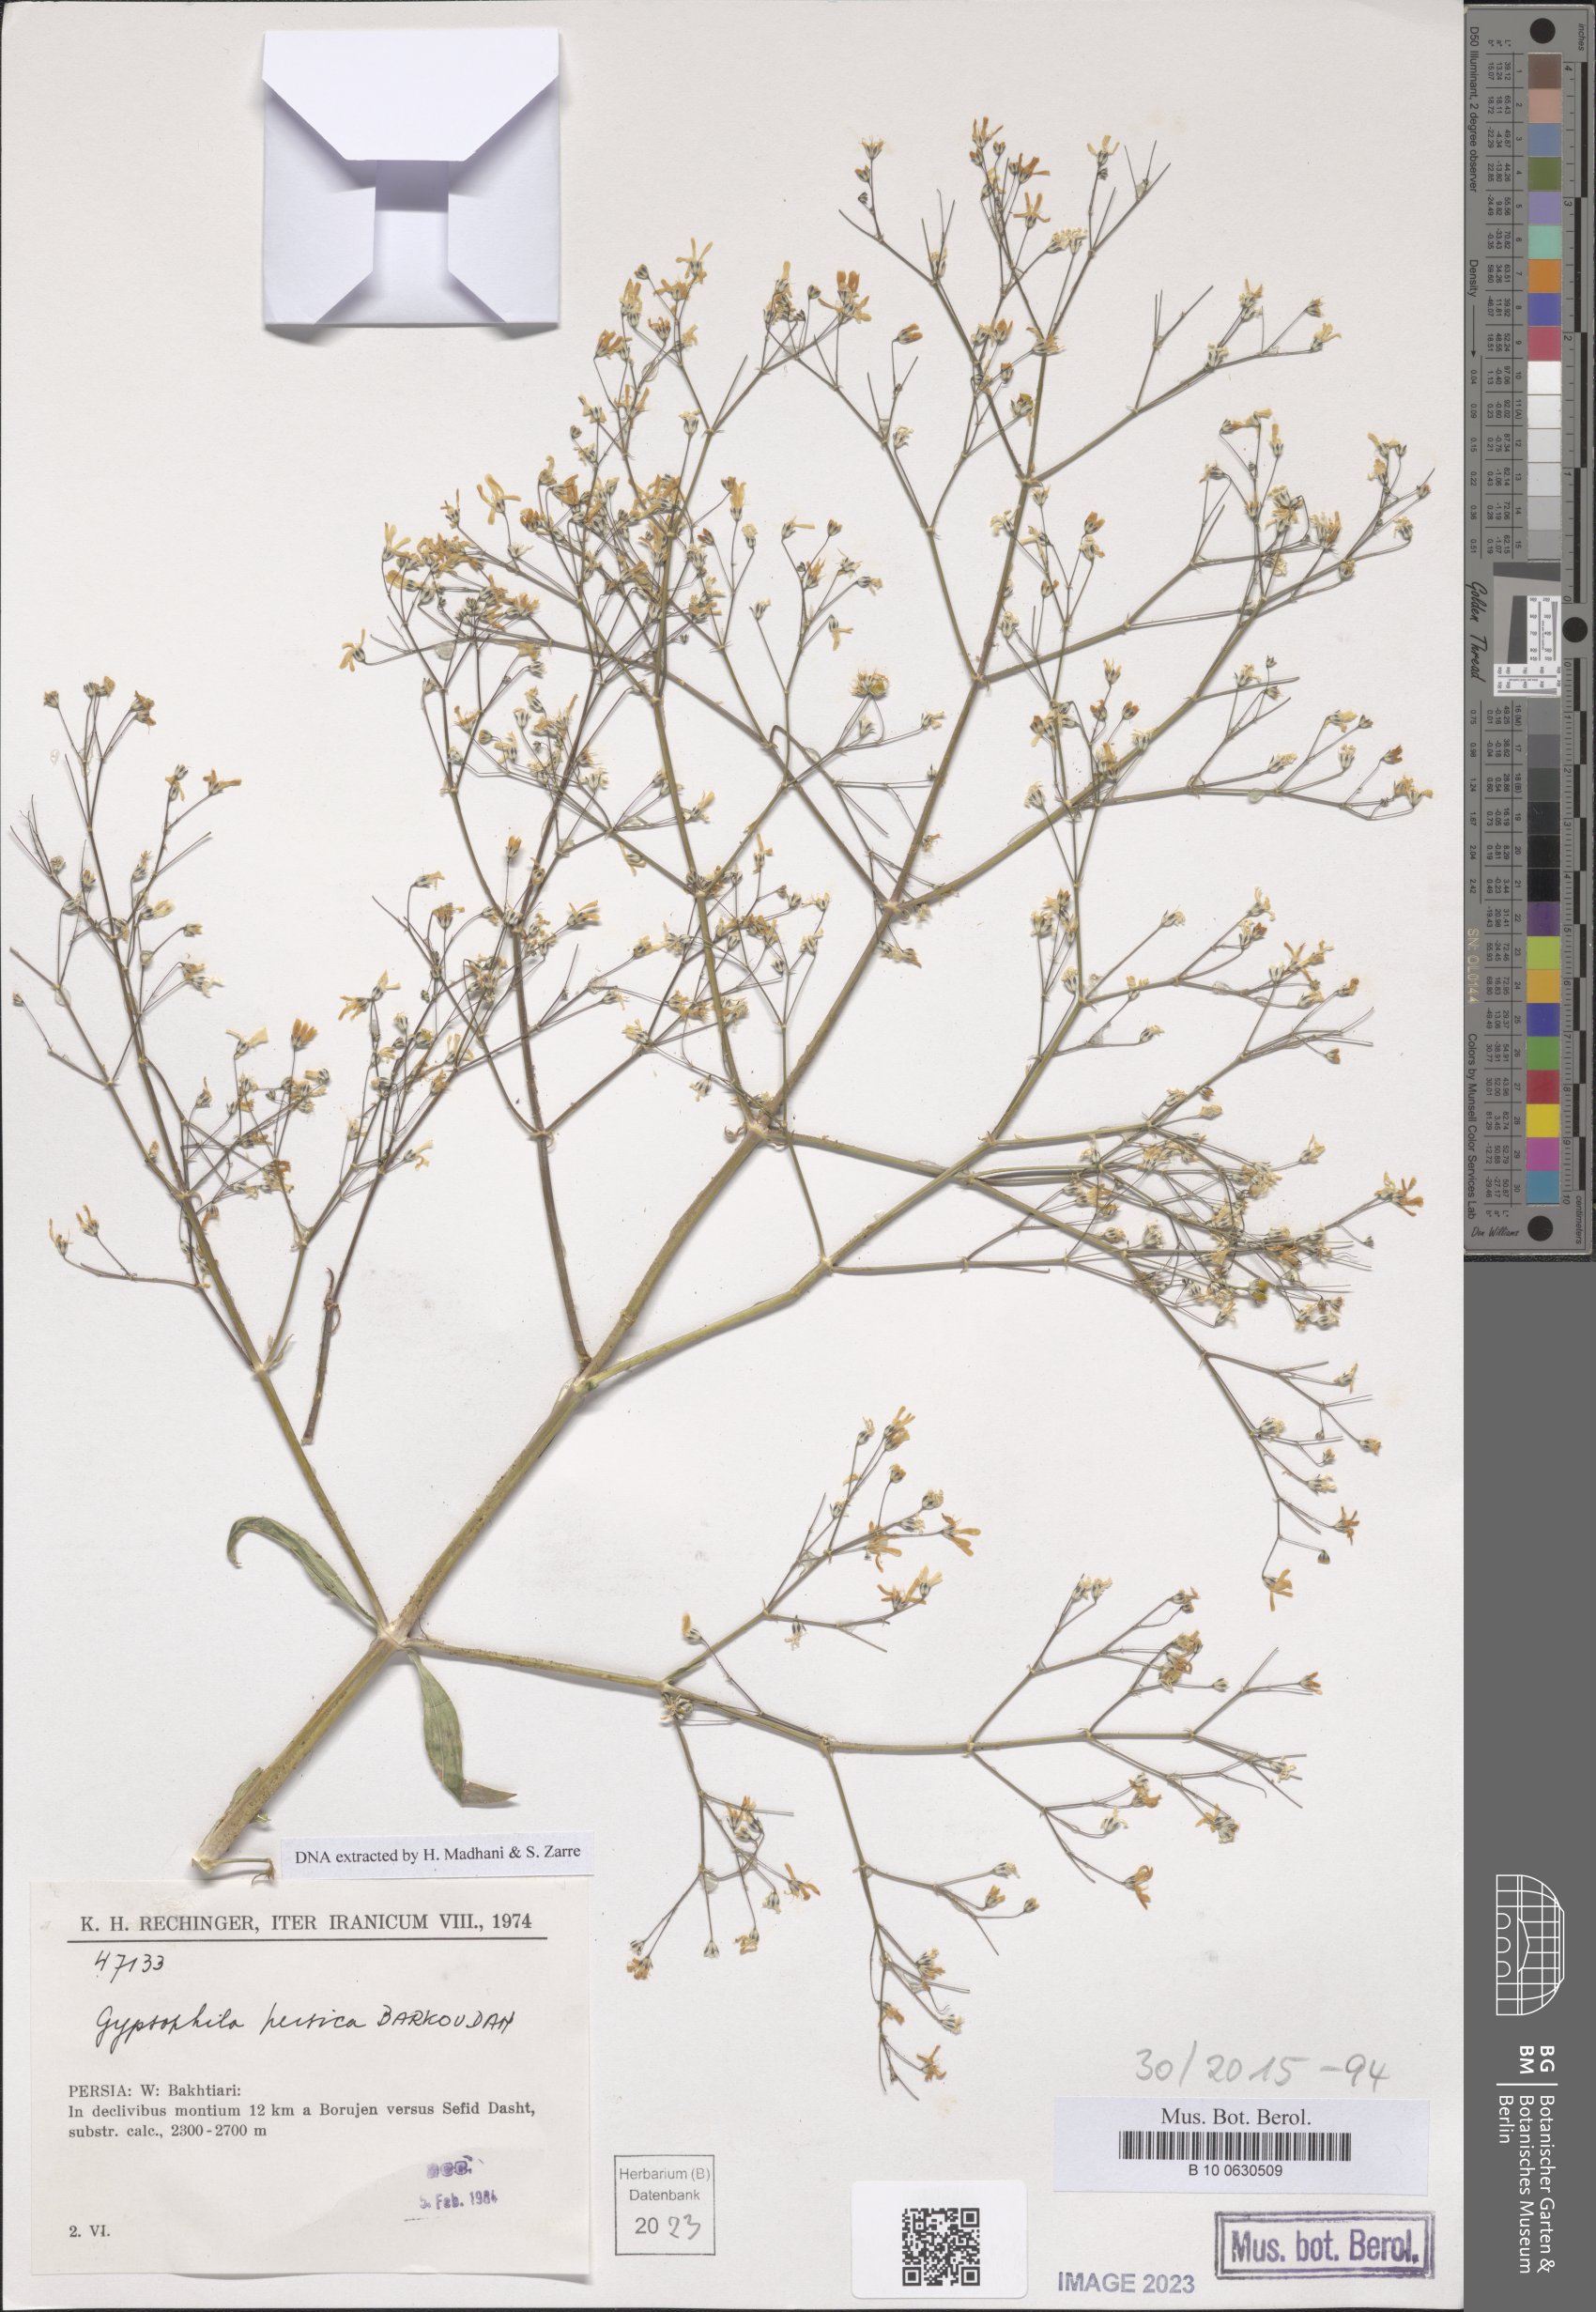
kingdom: Plantae
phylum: Tracheophyta
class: Magnoliopsida
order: Caryophyllales
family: Caryophyllaceae
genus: Gypsophila
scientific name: Gypsophila persica
